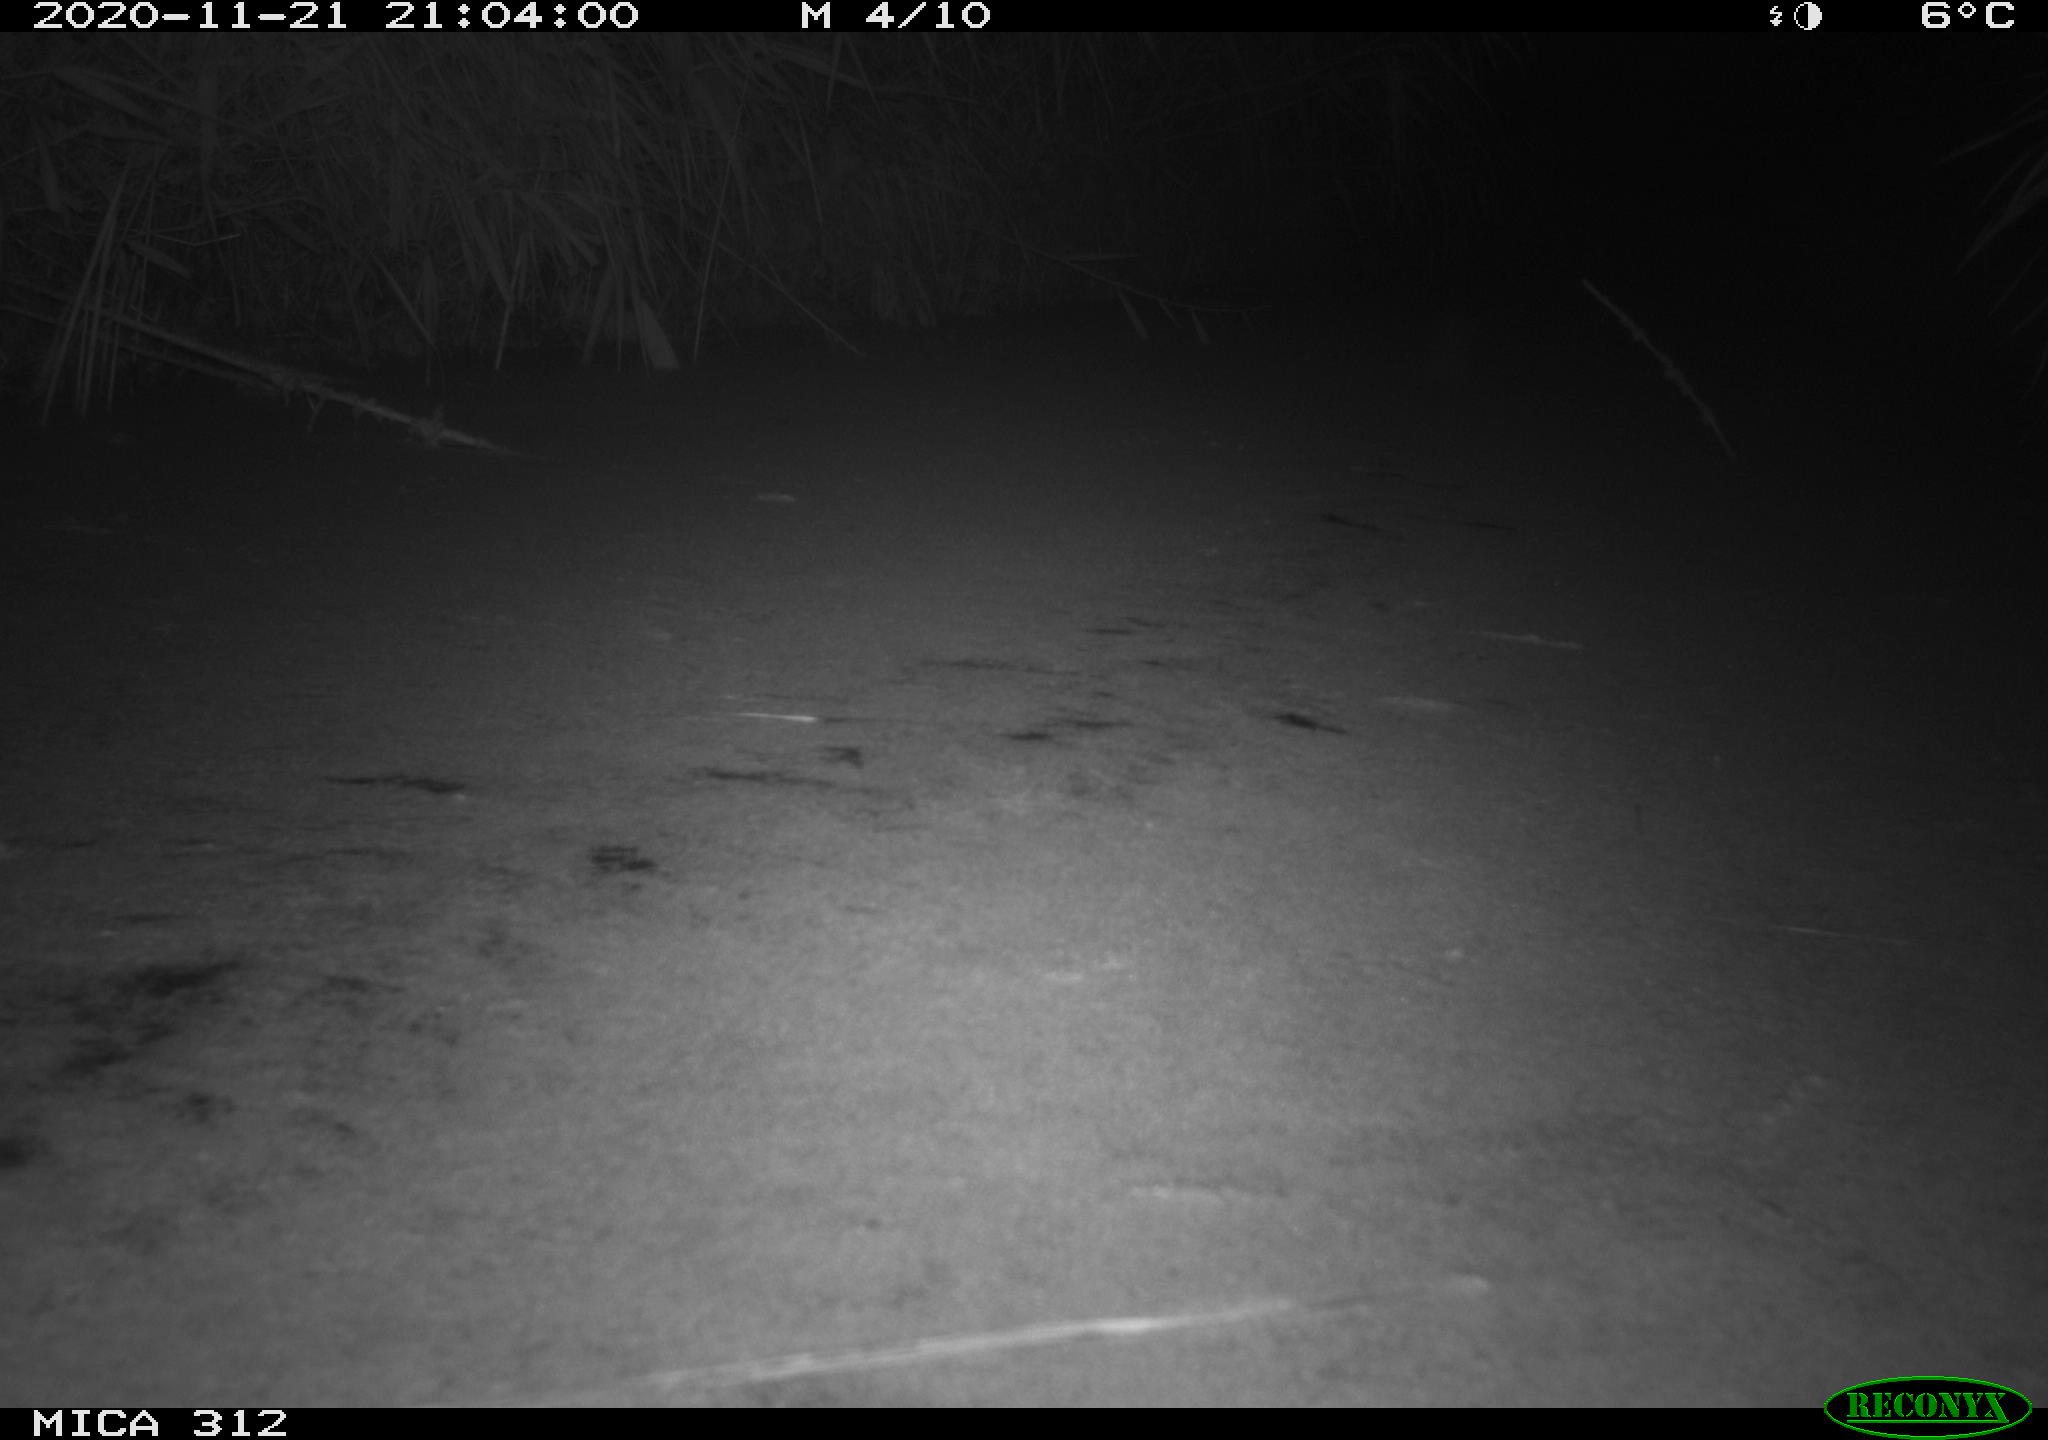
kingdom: Animalia
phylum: Chordata
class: Mammalia
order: Rodentia
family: Muridae
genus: Rattus
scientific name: Rattus norvegicus
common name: Brown rat
